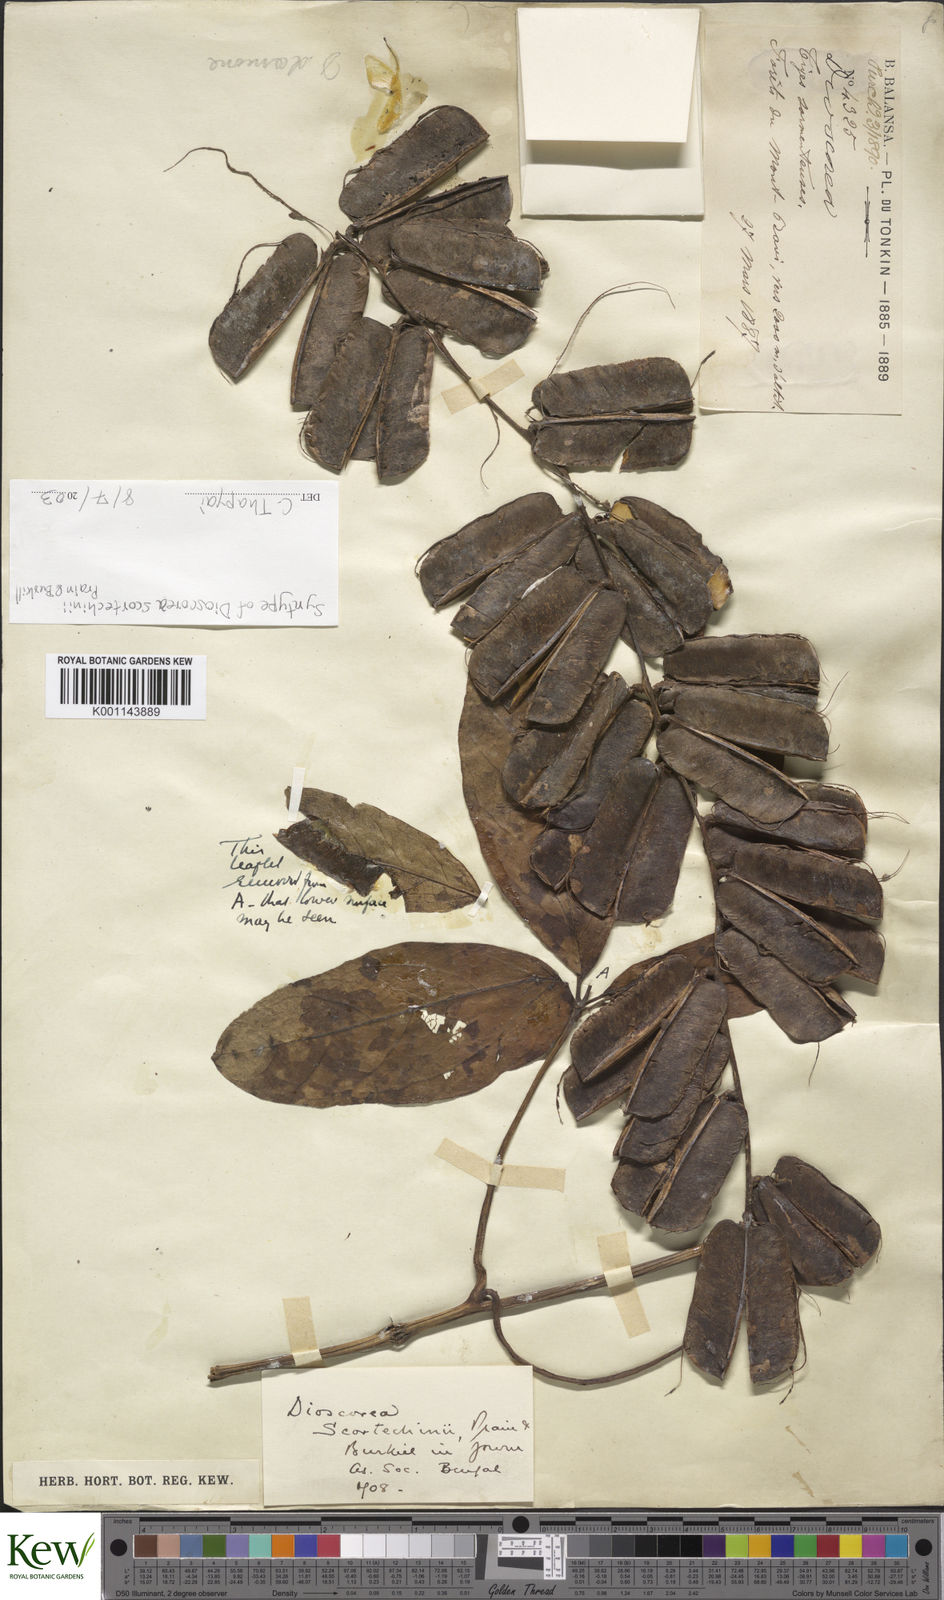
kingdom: Plantae
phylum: Tracheophyta
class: Liliopsida
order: Dioscoreales
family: Dioscoreaceae
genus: Dioscorea
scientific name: Dioscorea scortechinii
